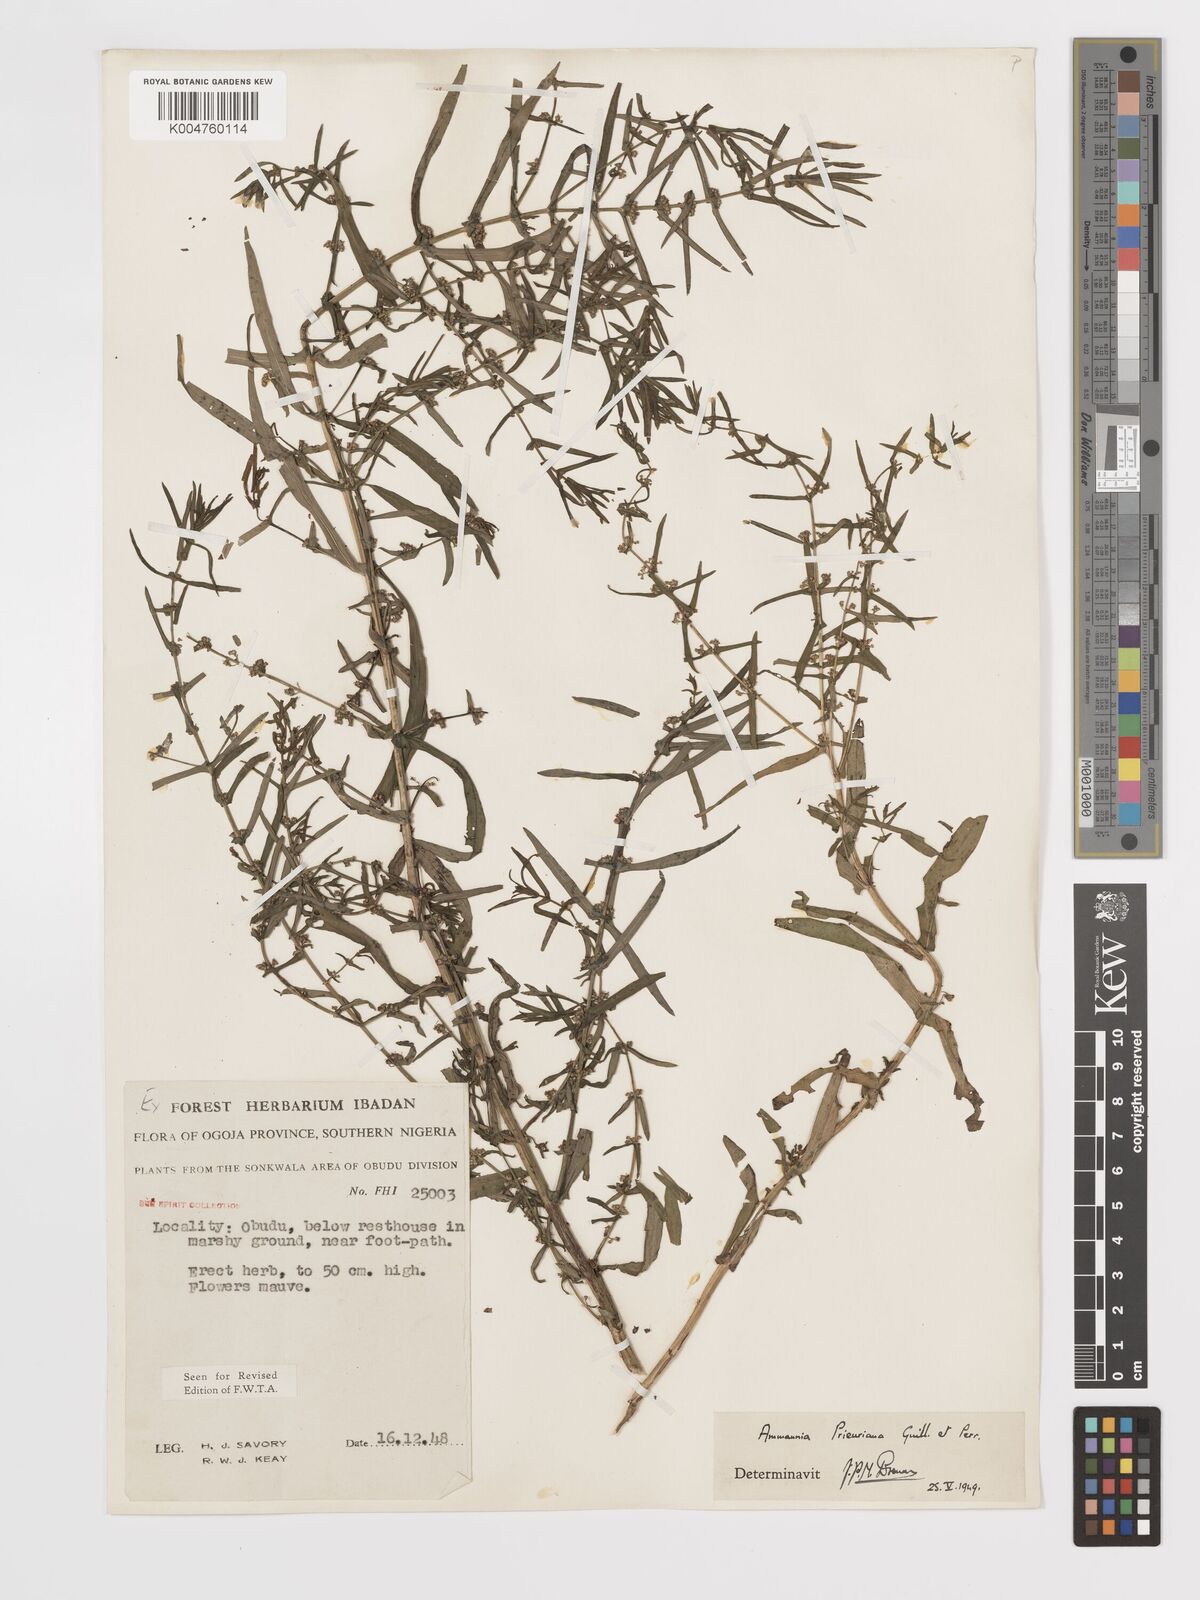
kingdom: Plantae
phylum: Tracheophyta
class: Magnoliopsida
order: Myrtales
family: Lythraceae
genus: Ammannia
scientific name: Ammannia prieuriana
